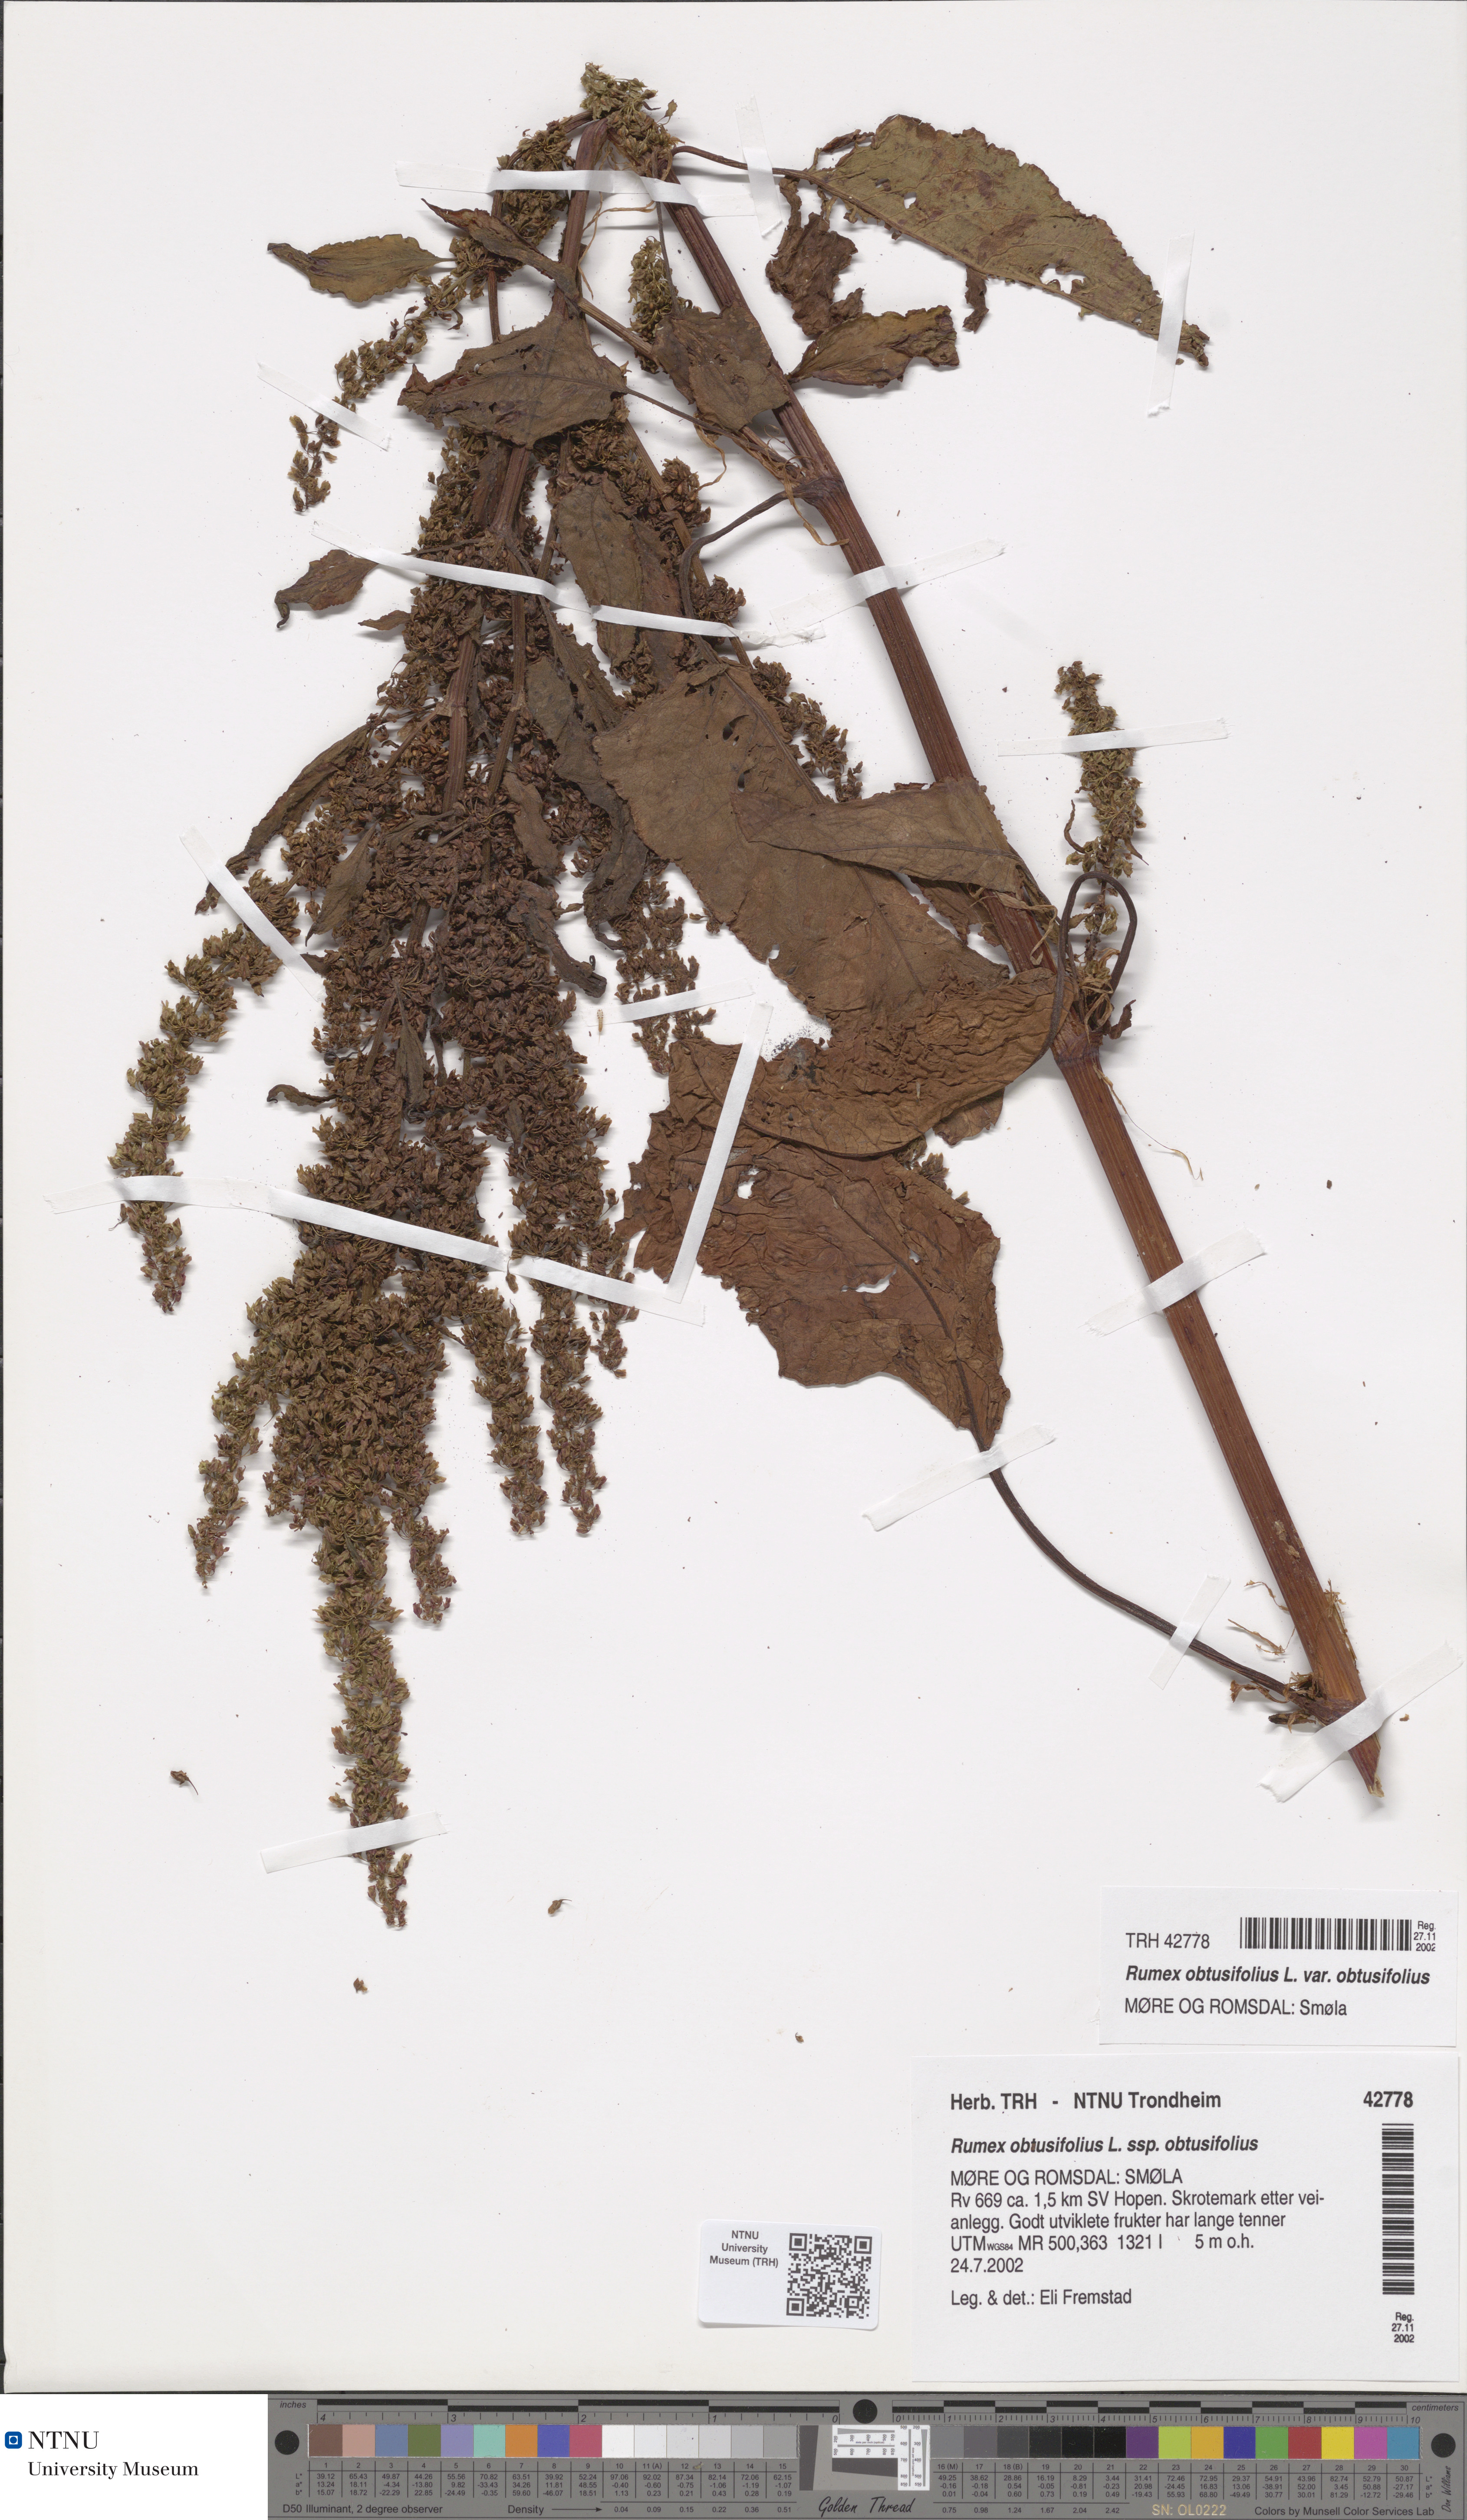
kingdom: Plantae
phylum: Tracheophyta
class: Magnoliopsida
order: Caryophyllales
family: Polygonaceae
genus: Rumex
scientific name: Rumex obtusifolius
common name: Bitter dock
